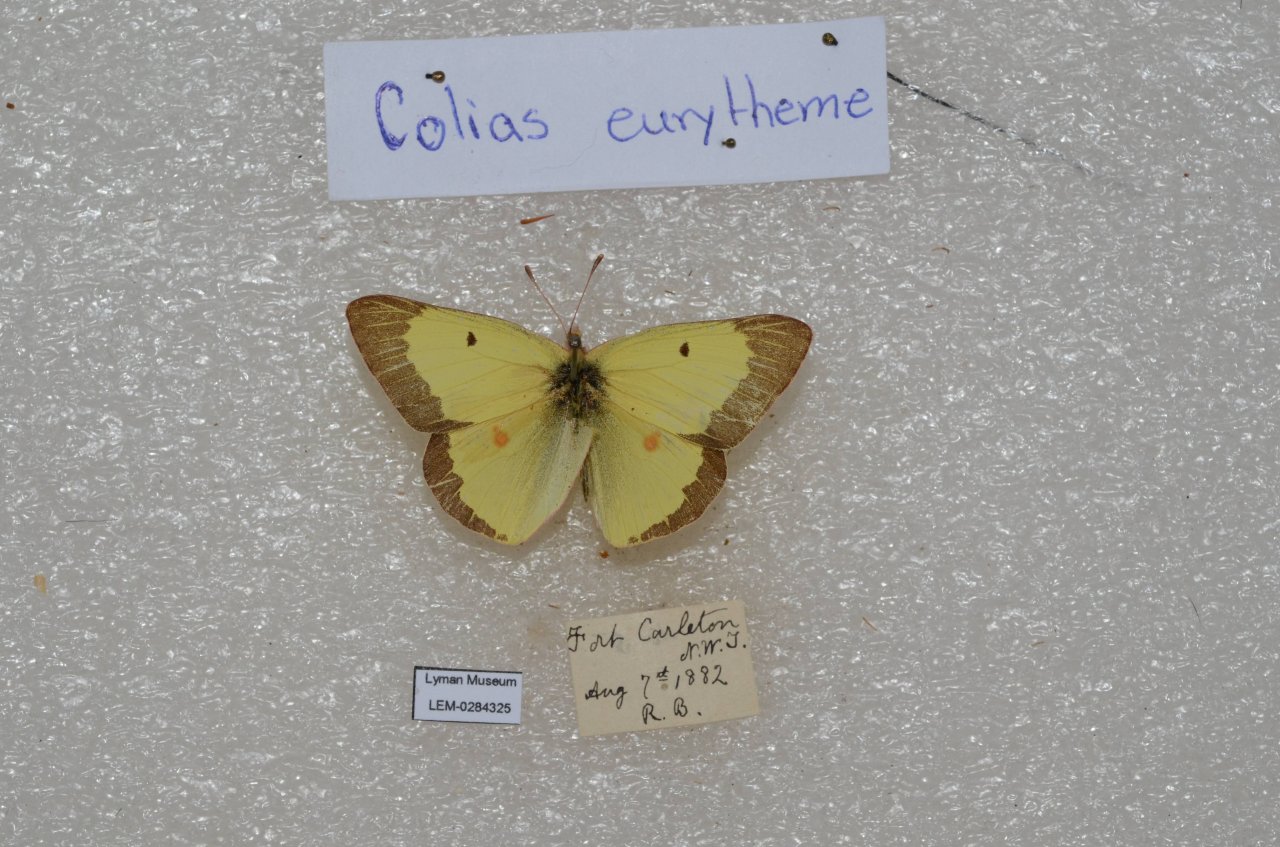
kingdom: Animalia
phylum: Arthropoda
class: Insecta
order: Lepidoptera
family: Pieridae
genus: Colias
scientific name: Colias philodice
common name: Clouded Sulphur
